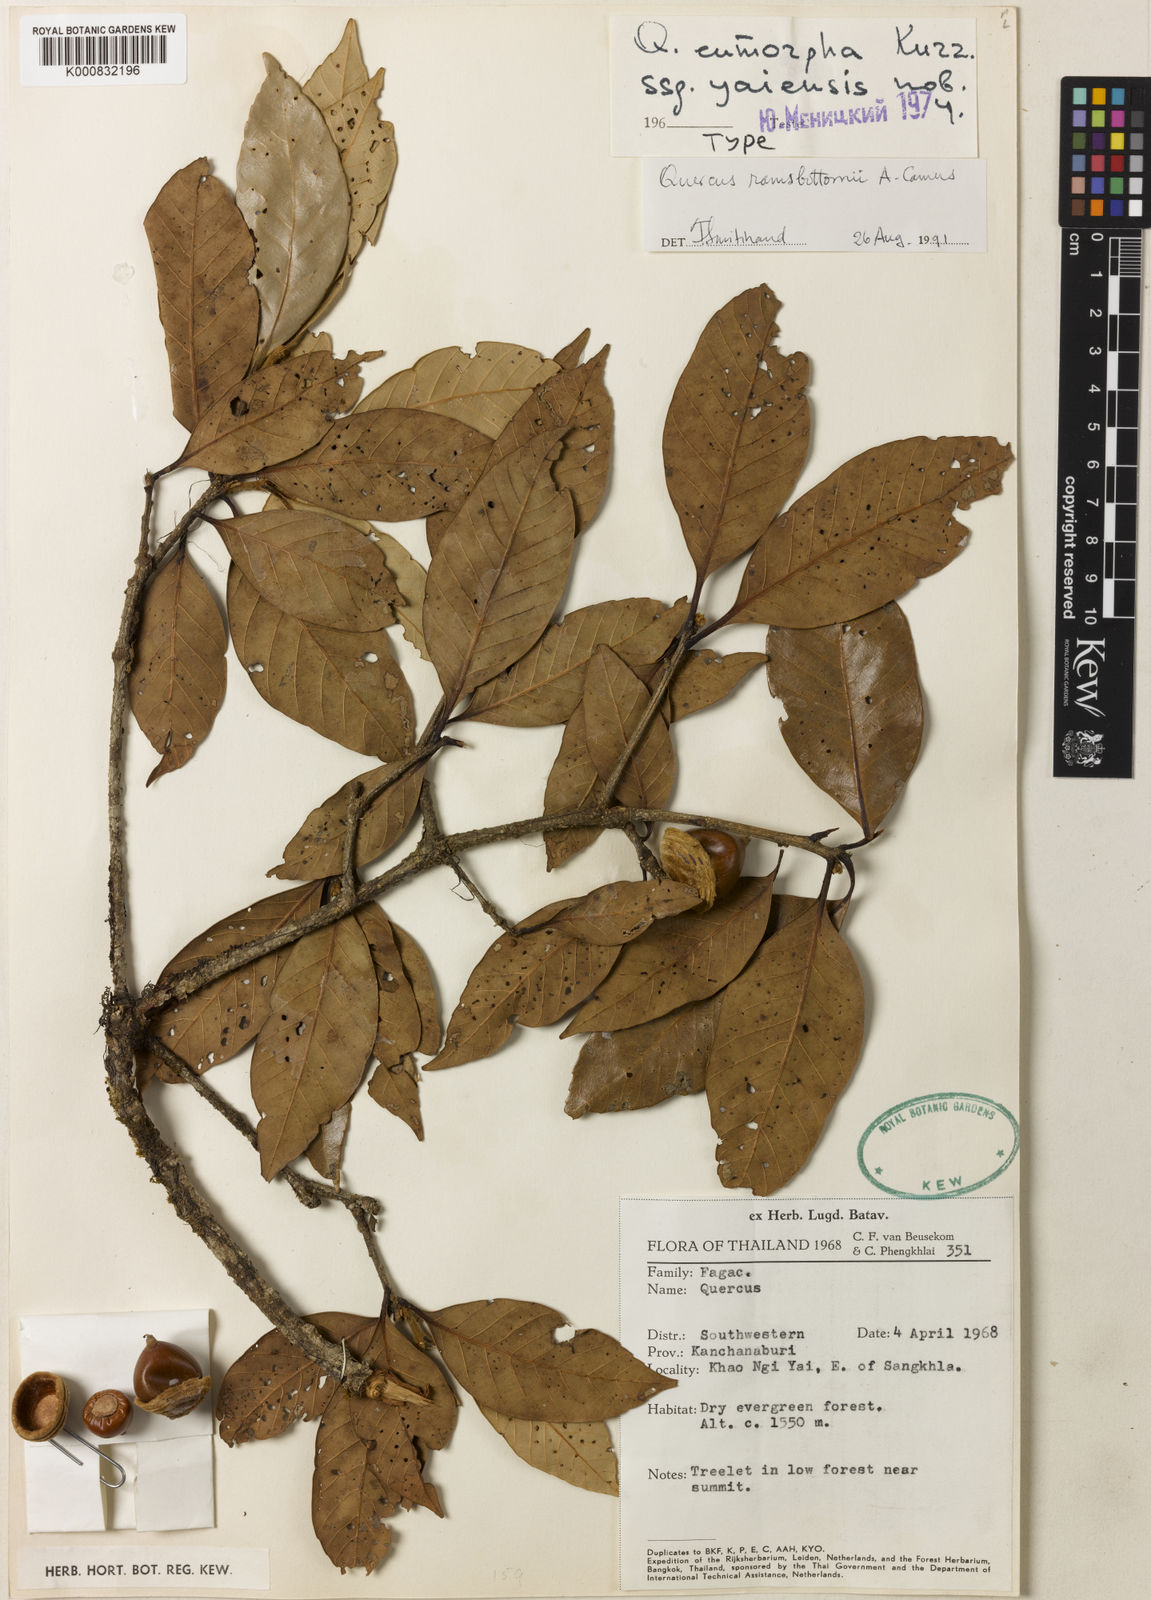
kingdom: Plantae
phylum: Tracheophyta
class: Magnoliopsida
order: Fagales
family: Fagaceae
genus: Quercus
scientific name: Quercus ramsbottomii
